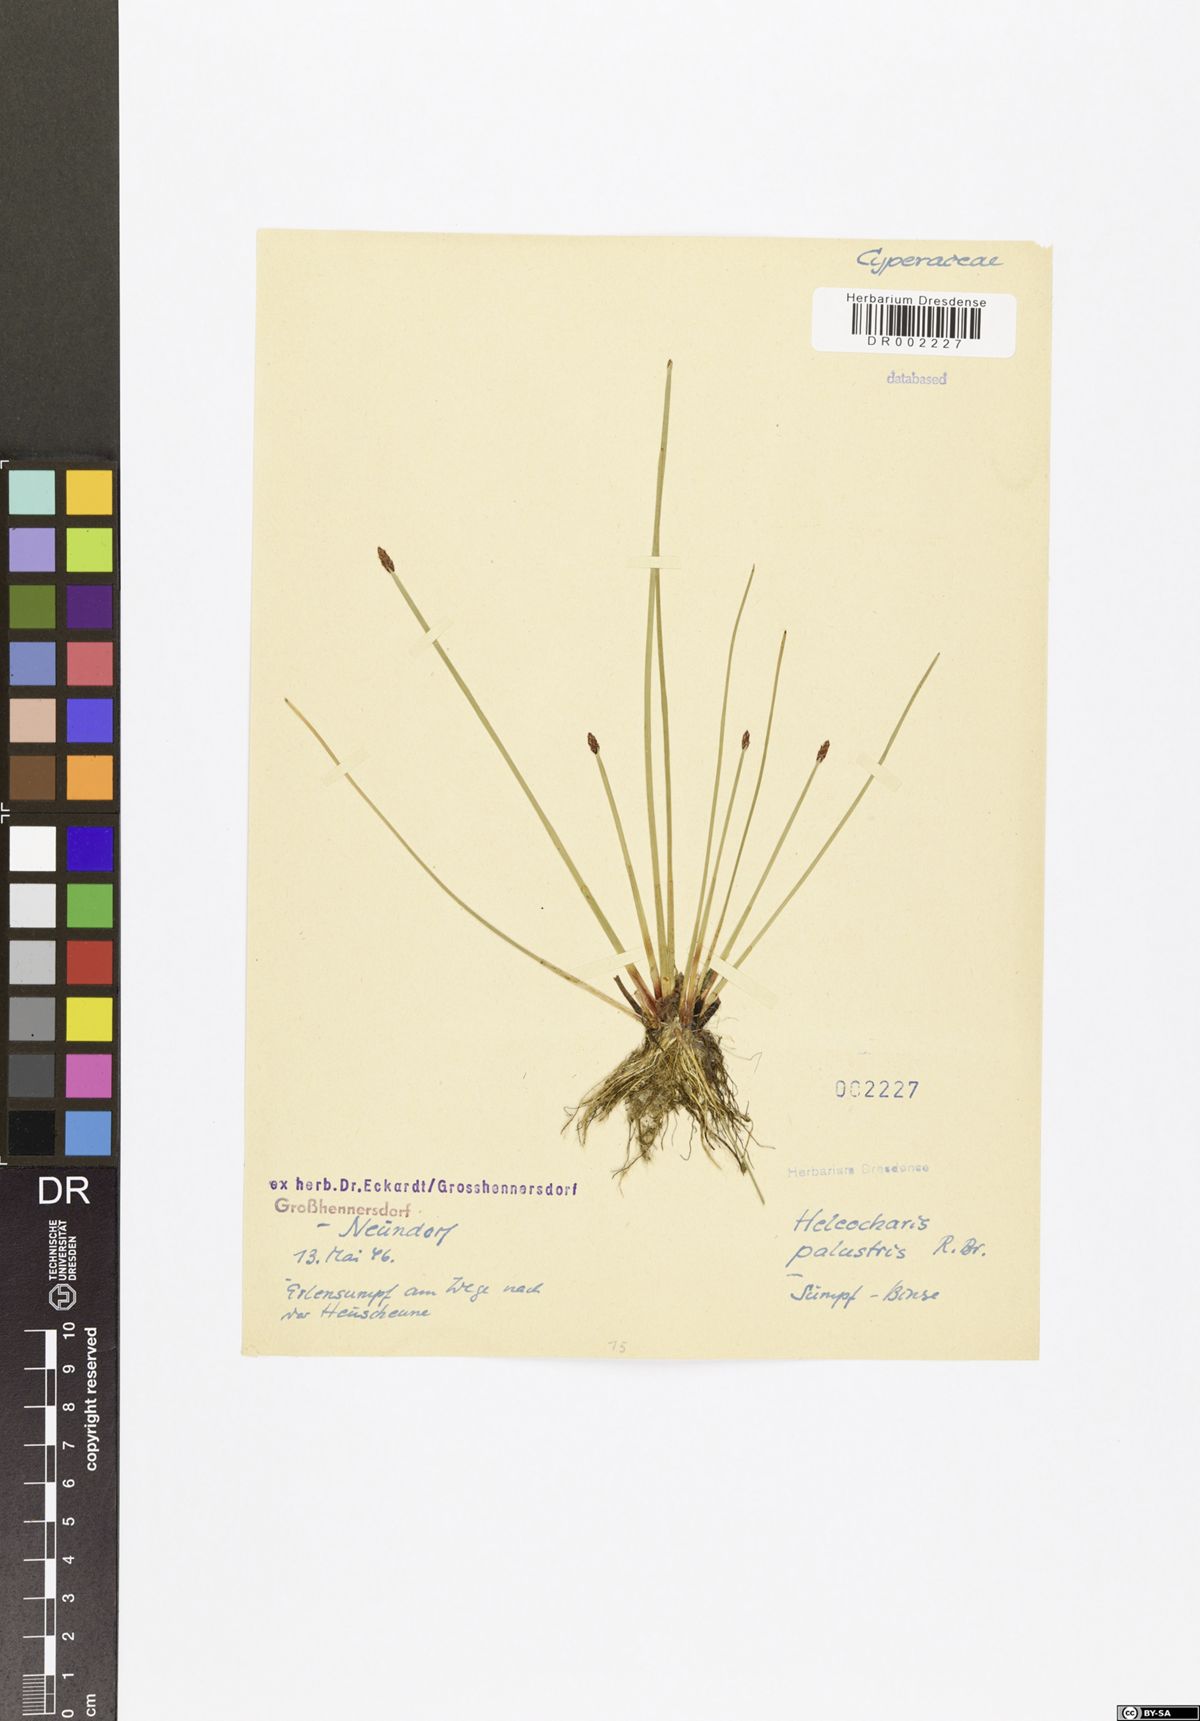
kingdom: Plantae
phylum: Tracheophyta
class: Liliopsida
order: Poales
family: Cyperaceae
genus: Eleocharis
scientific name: Eleocharis palustris
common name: Common spike-rush
